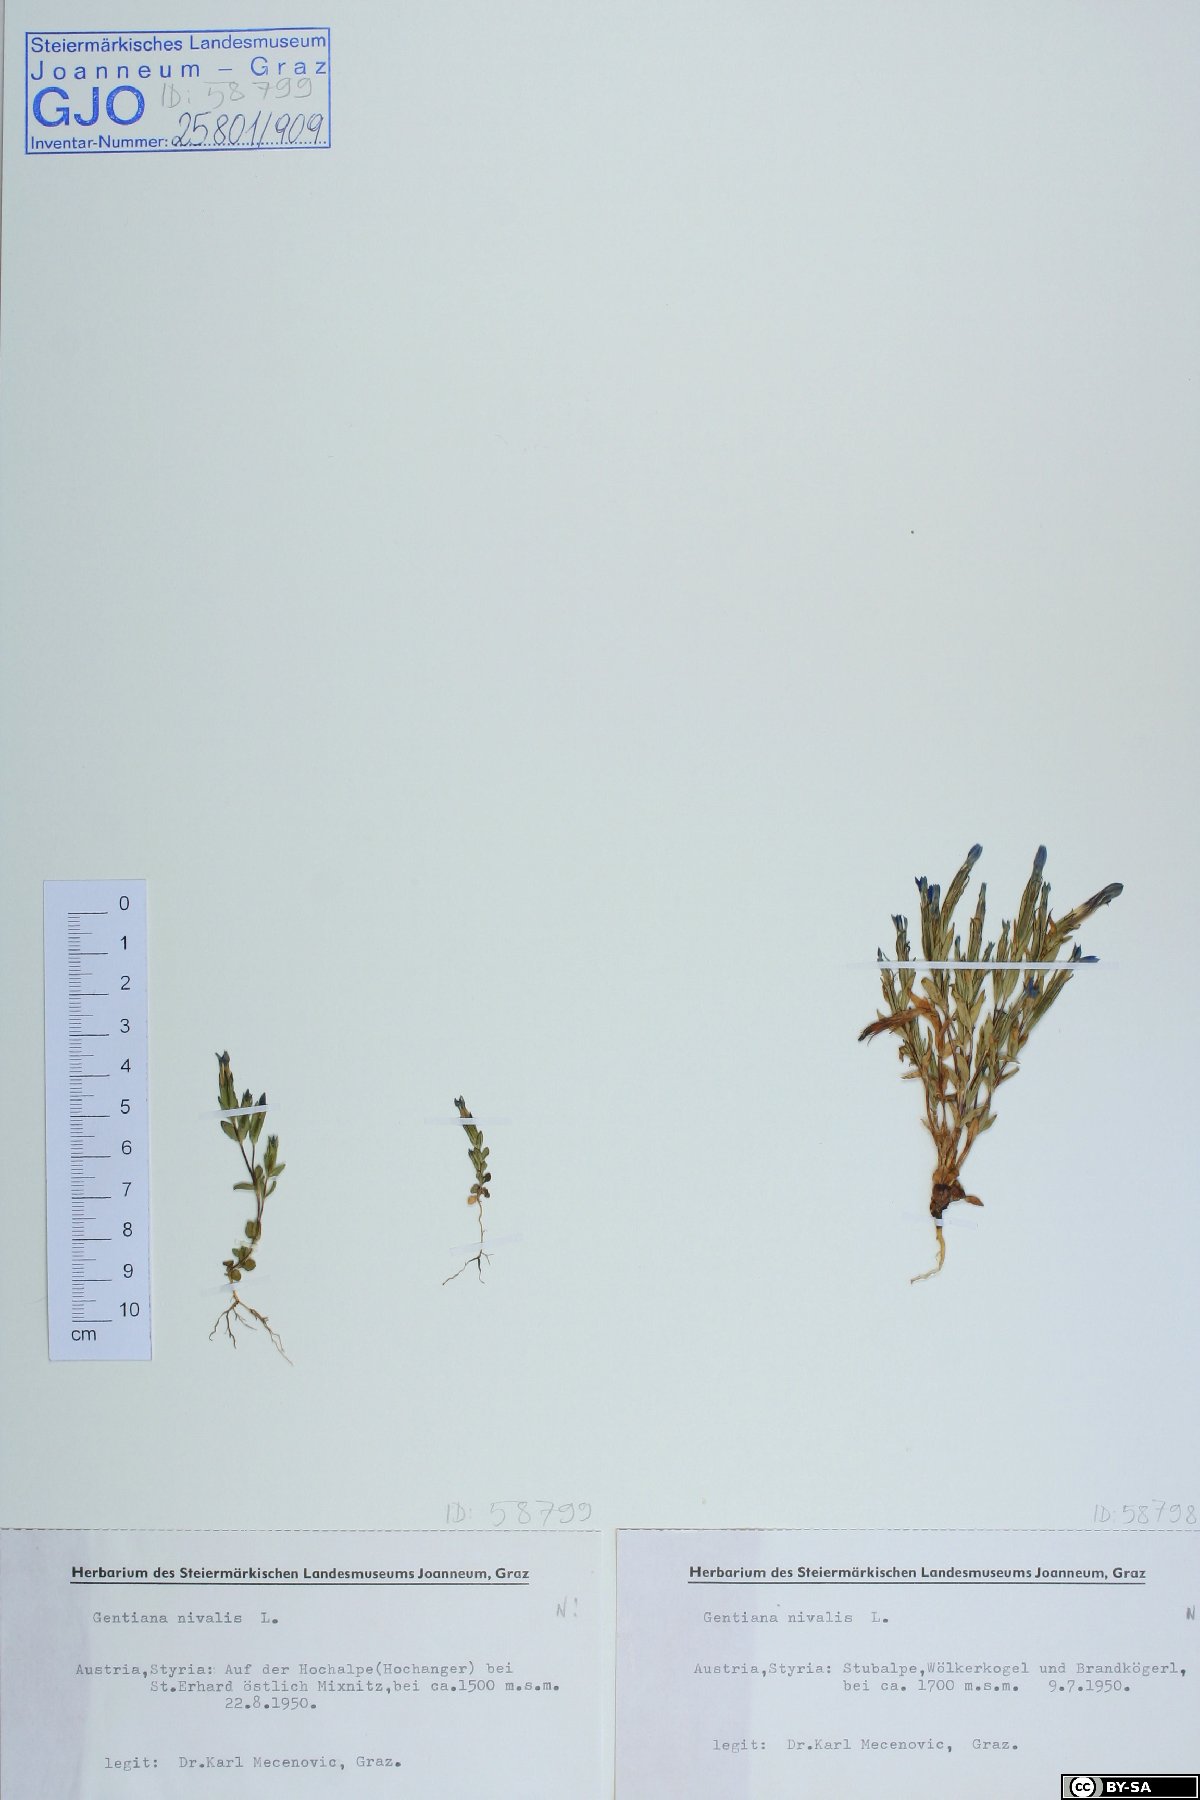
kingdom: Plantae
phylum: Tracheophyta
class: Magnoliopsida
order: Gentianales
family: Gentianaceae
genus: Gentiana
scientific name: Gentiana nivalis
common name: Alpine gentian
